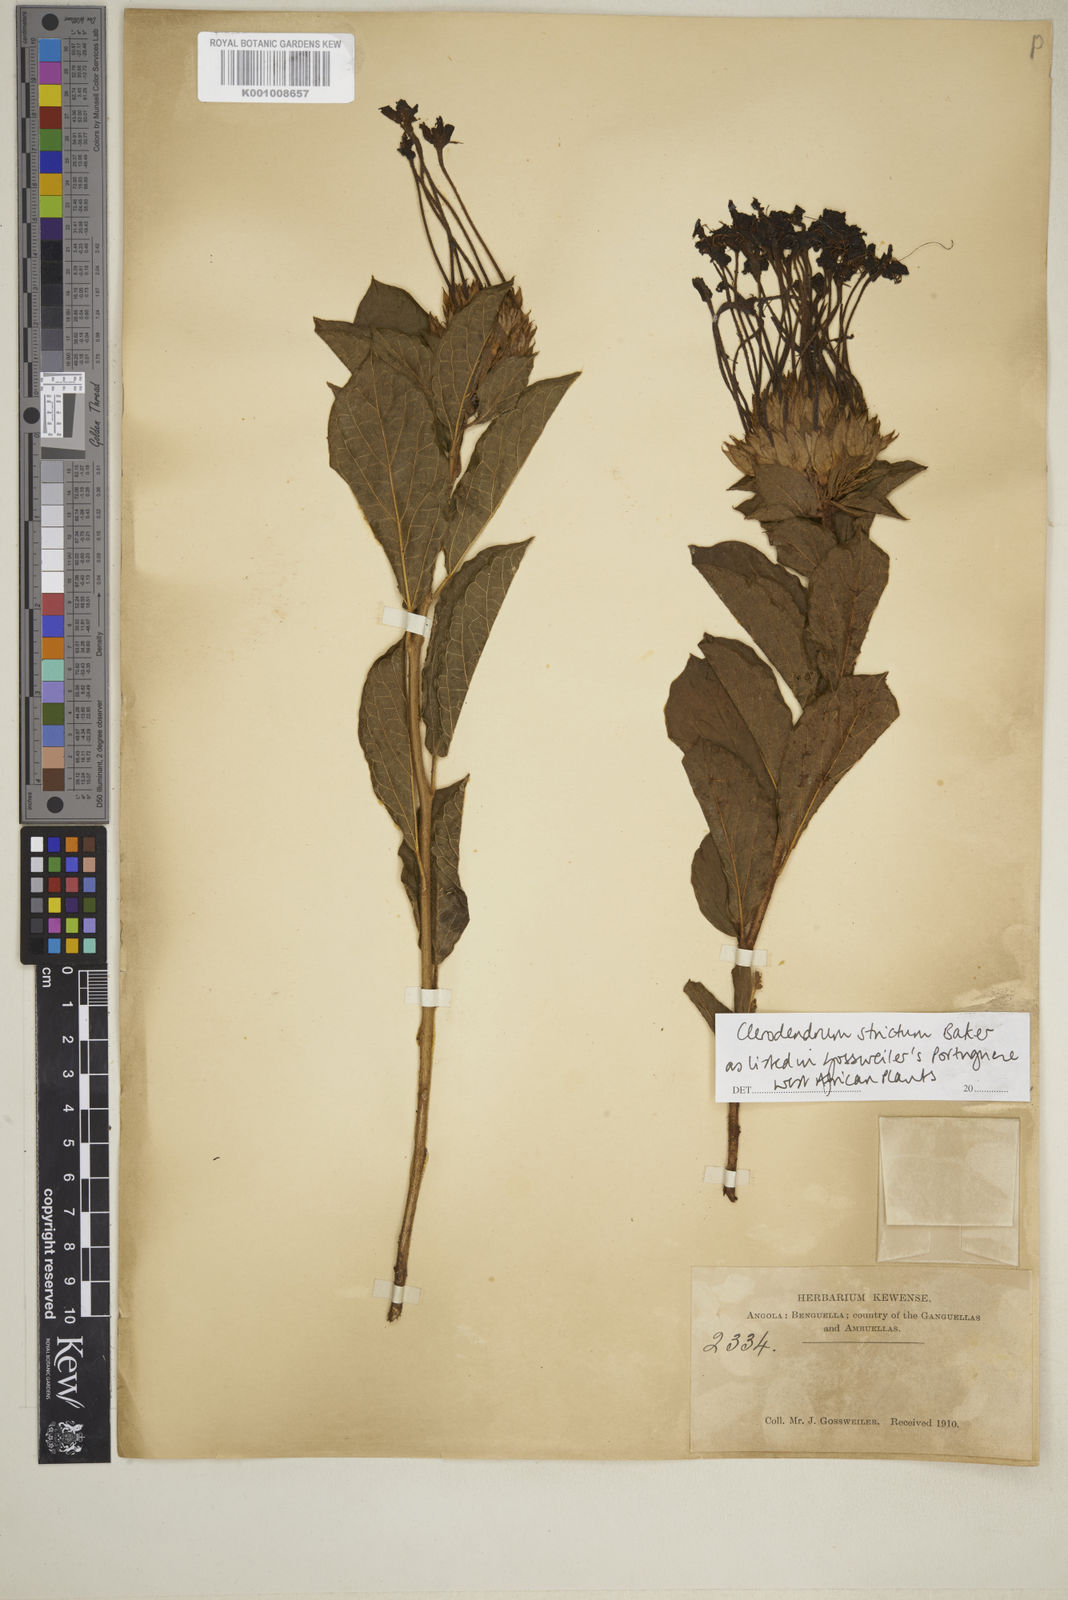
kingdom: Plantae
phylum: Tracheophyta
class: Magnoliopsida
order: Lamiales
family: Lamiaceae
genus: Clerodendrum
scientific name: Clerodendrum buchneri
